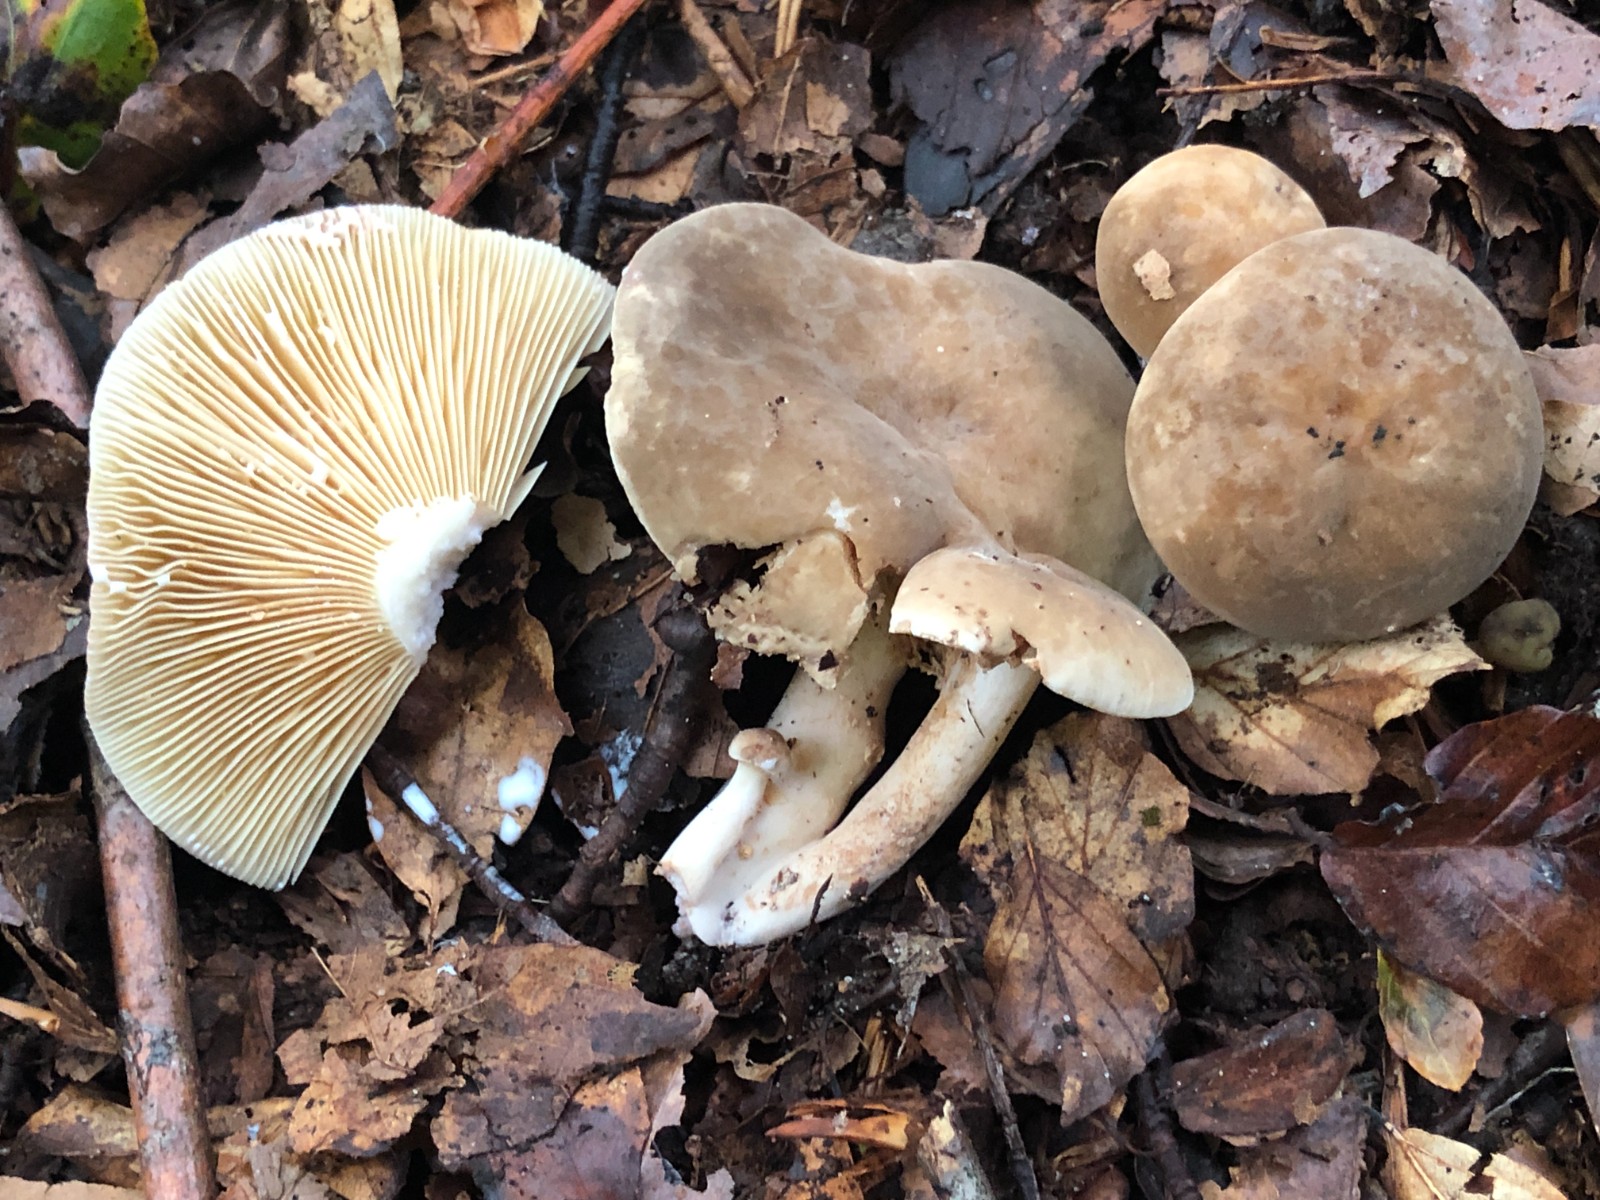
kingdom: Fungi
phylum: Basidiomycota
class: Agaricomycetes
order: Russulales
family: Russulaceae
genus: Lactarius
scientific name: Lactarius
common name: mælkehat
